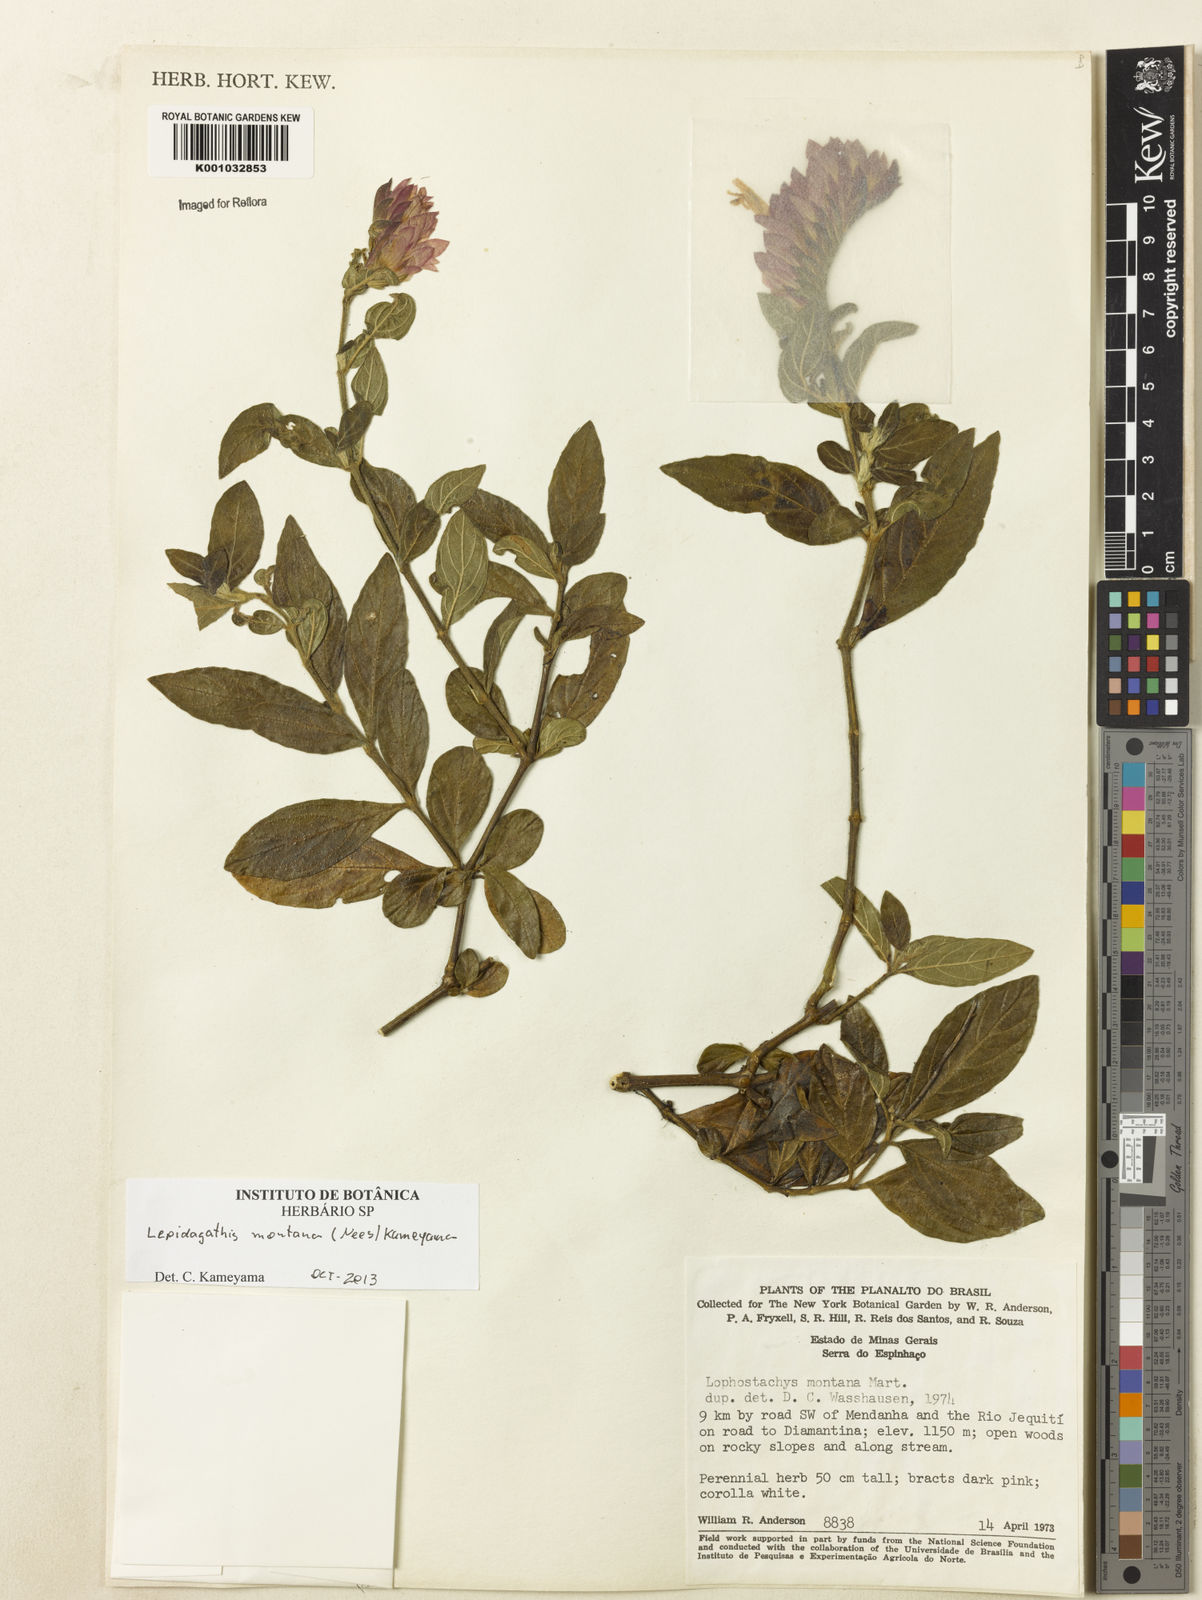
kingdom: Plantae
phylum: Tracheophyta
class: Magnoliopsida
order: Lamiales
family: Acanthaceae
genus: Lepidagathis
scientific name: Lepidagathis montana
